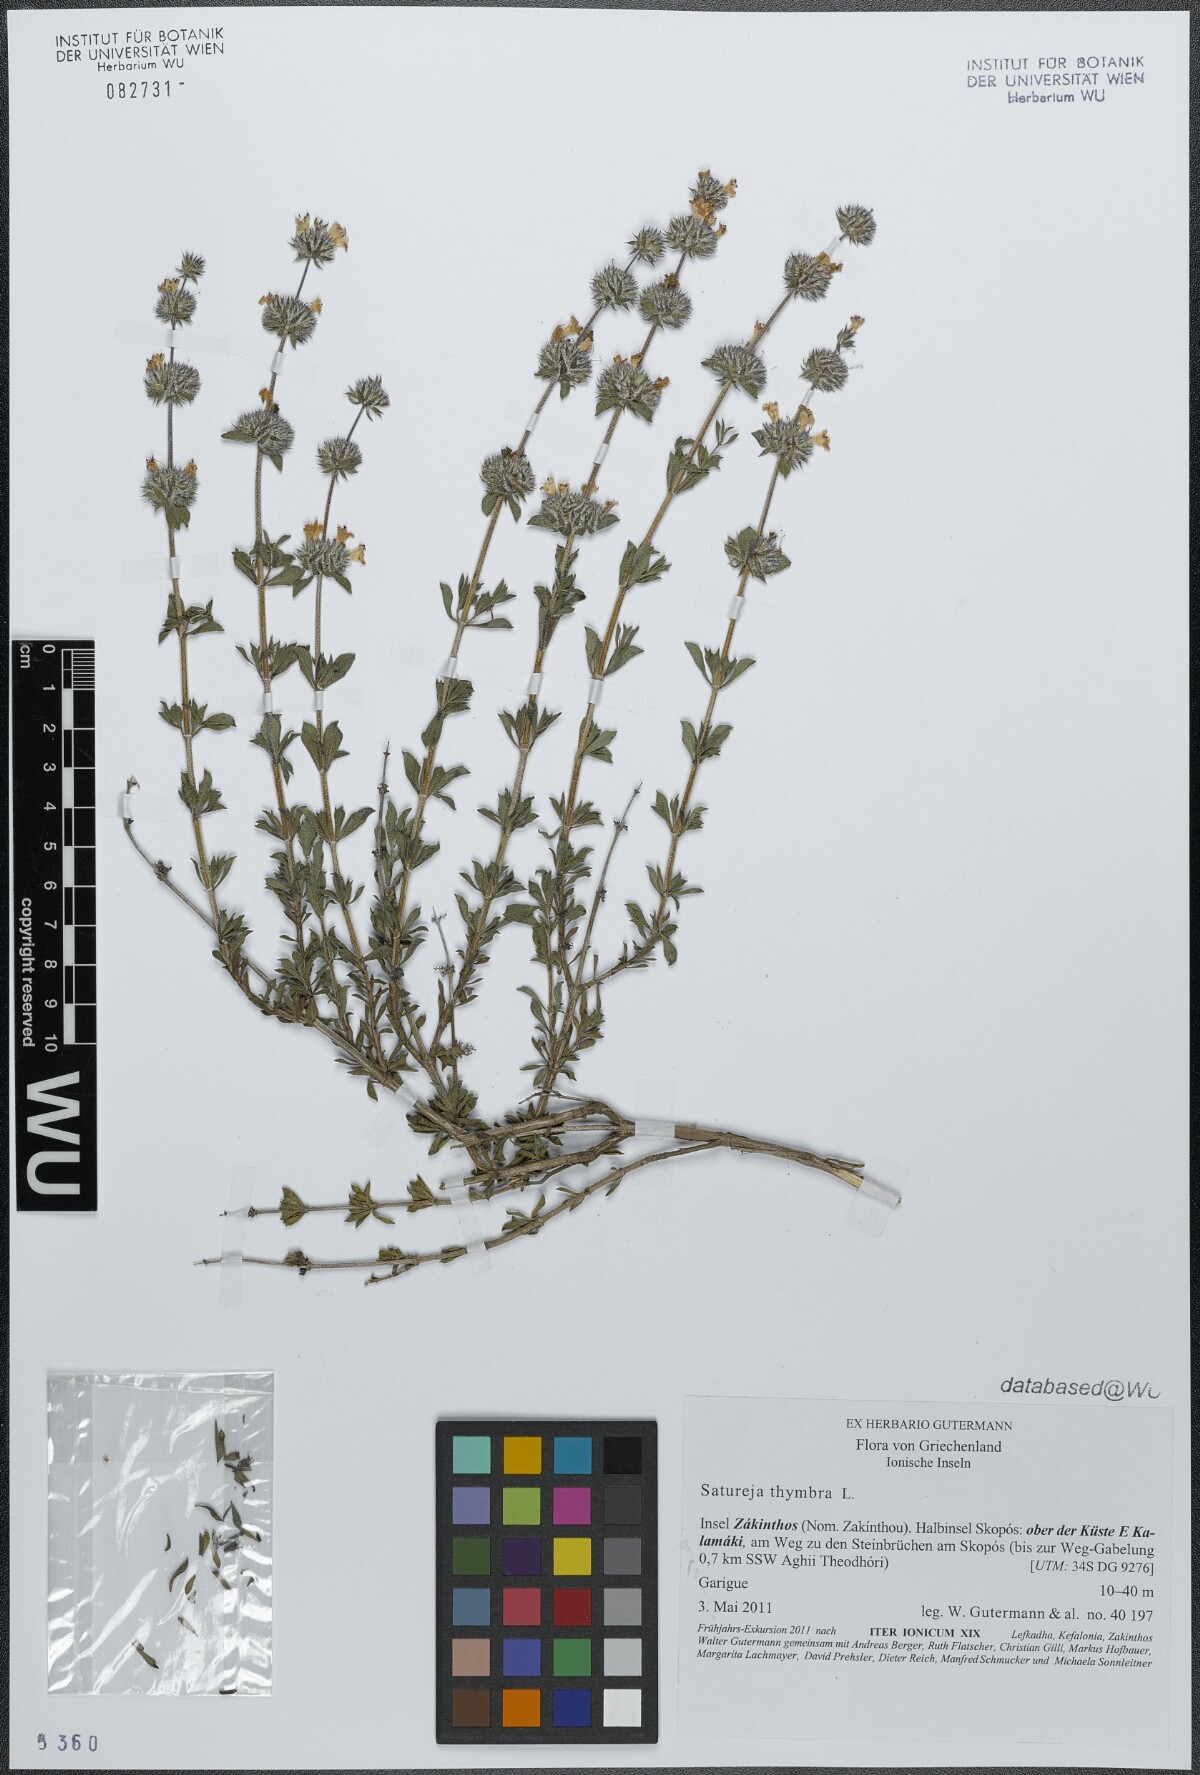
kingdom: Plantae
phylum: Tracheophyta
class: Magnoliopsida
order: Lamiales
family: Lamiaceae
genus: Satureja
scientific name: Satureja thymbra
